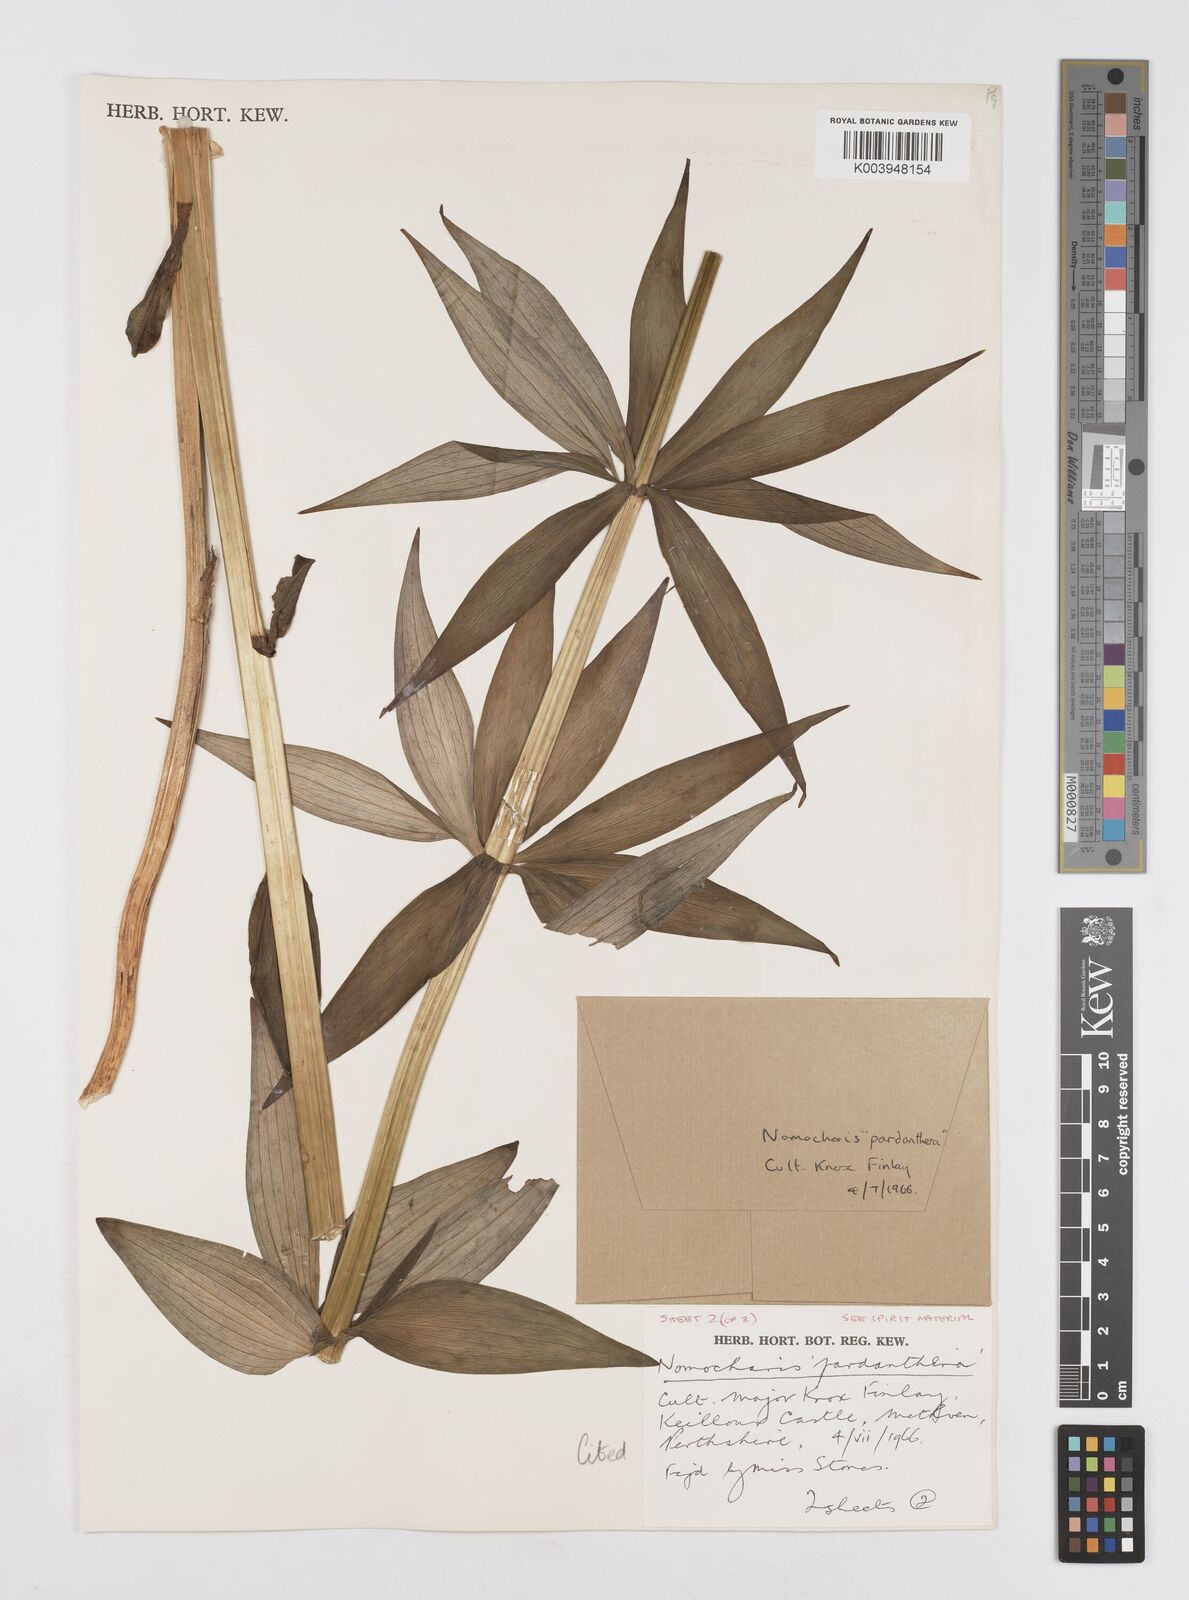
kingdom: Plantae
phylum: Tracheophyta
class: Liliopsida
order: Liliales
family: Liliaceae
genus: Lilium
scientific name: Lilium Nomocharis finlayorum
